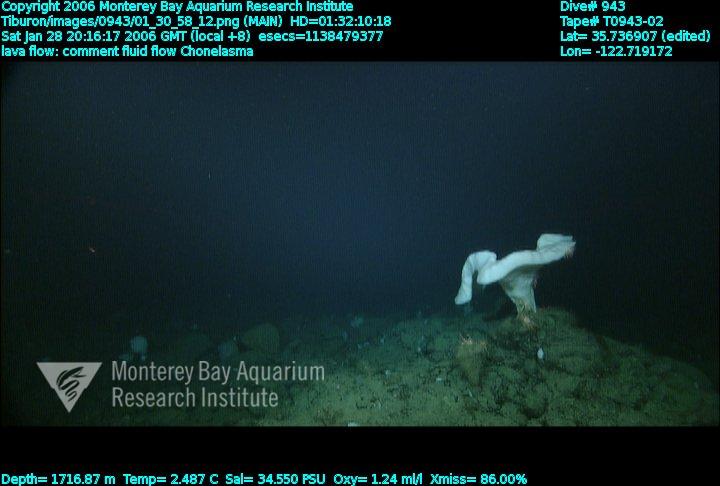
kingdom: Animalia
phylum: Porifera
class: Hexactinellida
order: Sceptrulophora
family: Euretidae
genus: Chonelasma
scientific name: Chonelasma
